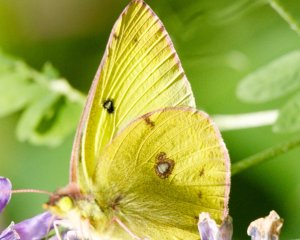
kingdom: Animalia
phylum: Arthropoda
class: Insecta
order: Lepidoptera
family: Pieridae
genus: Colias
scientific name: Colias philodice
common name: Clouded Sulphur
